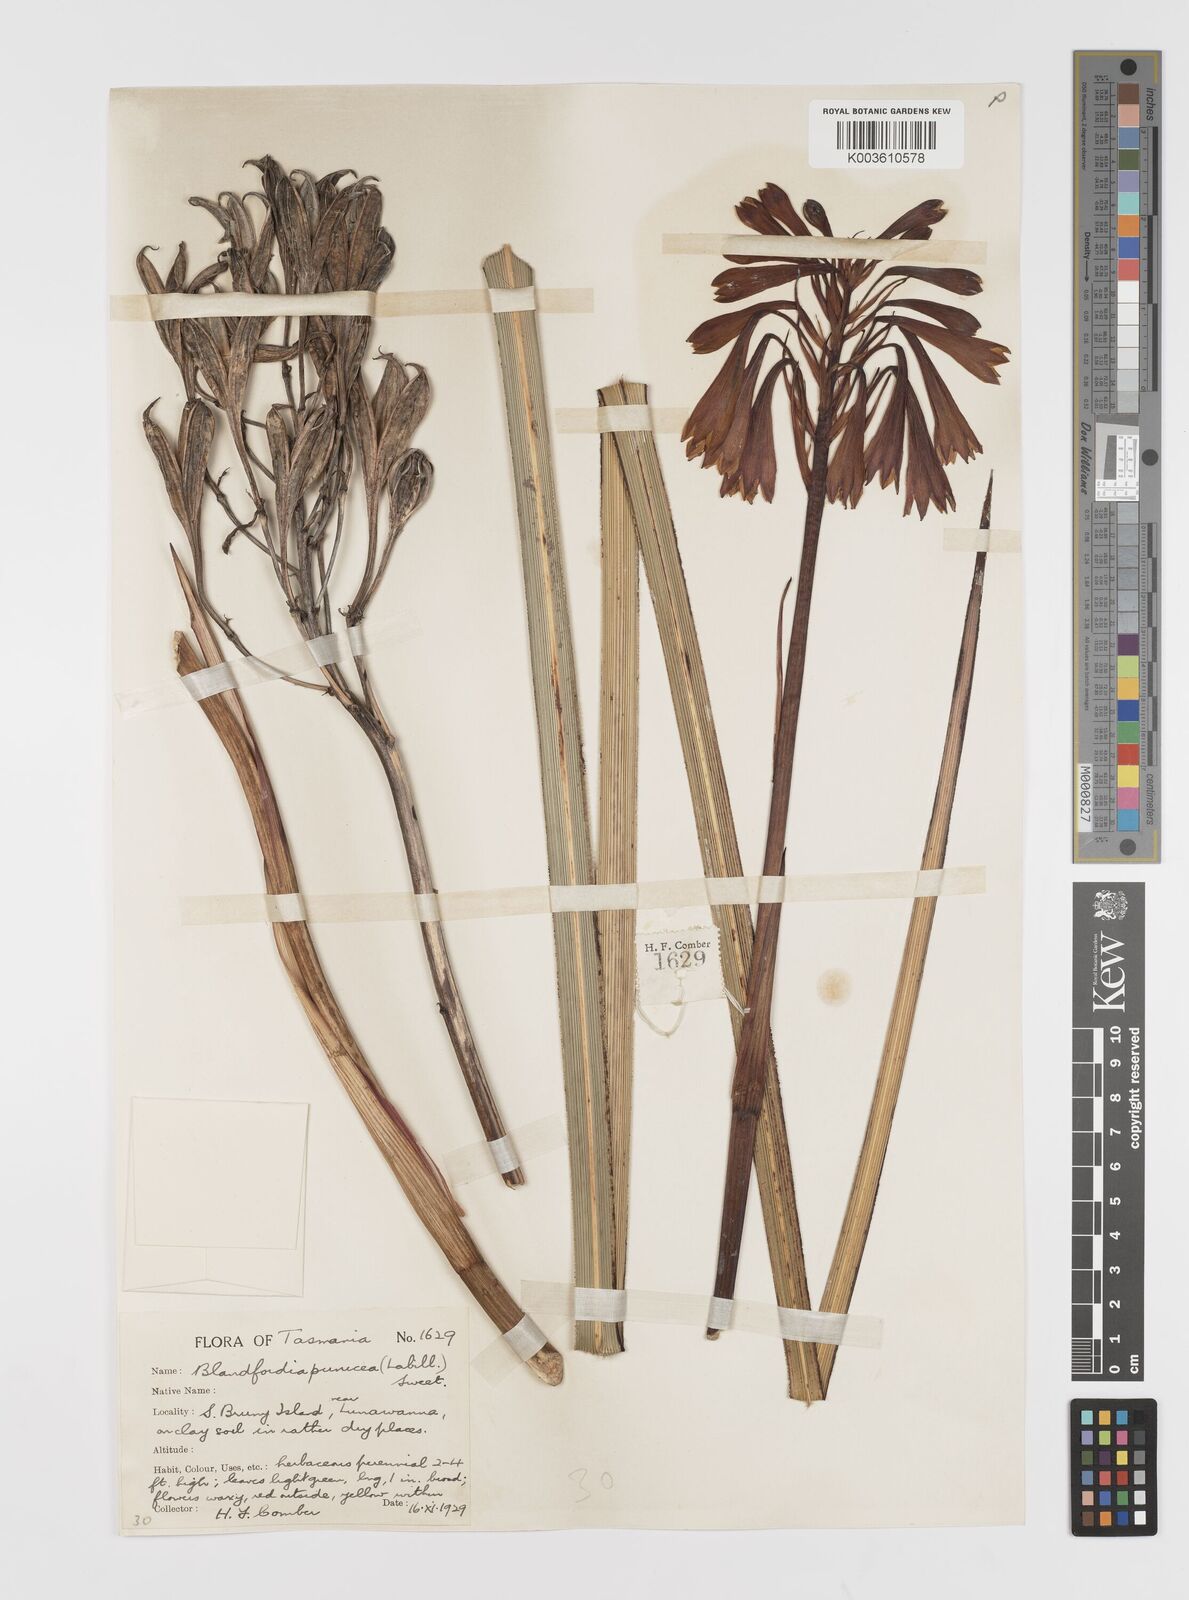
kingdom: Plantae
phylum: Tracheophyta
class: Liliopsida
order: Asparagales
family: Blandfordiaceae
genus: Blandfordia
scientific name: Blandfordia punicea
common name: Tasmanian christmas-bell
